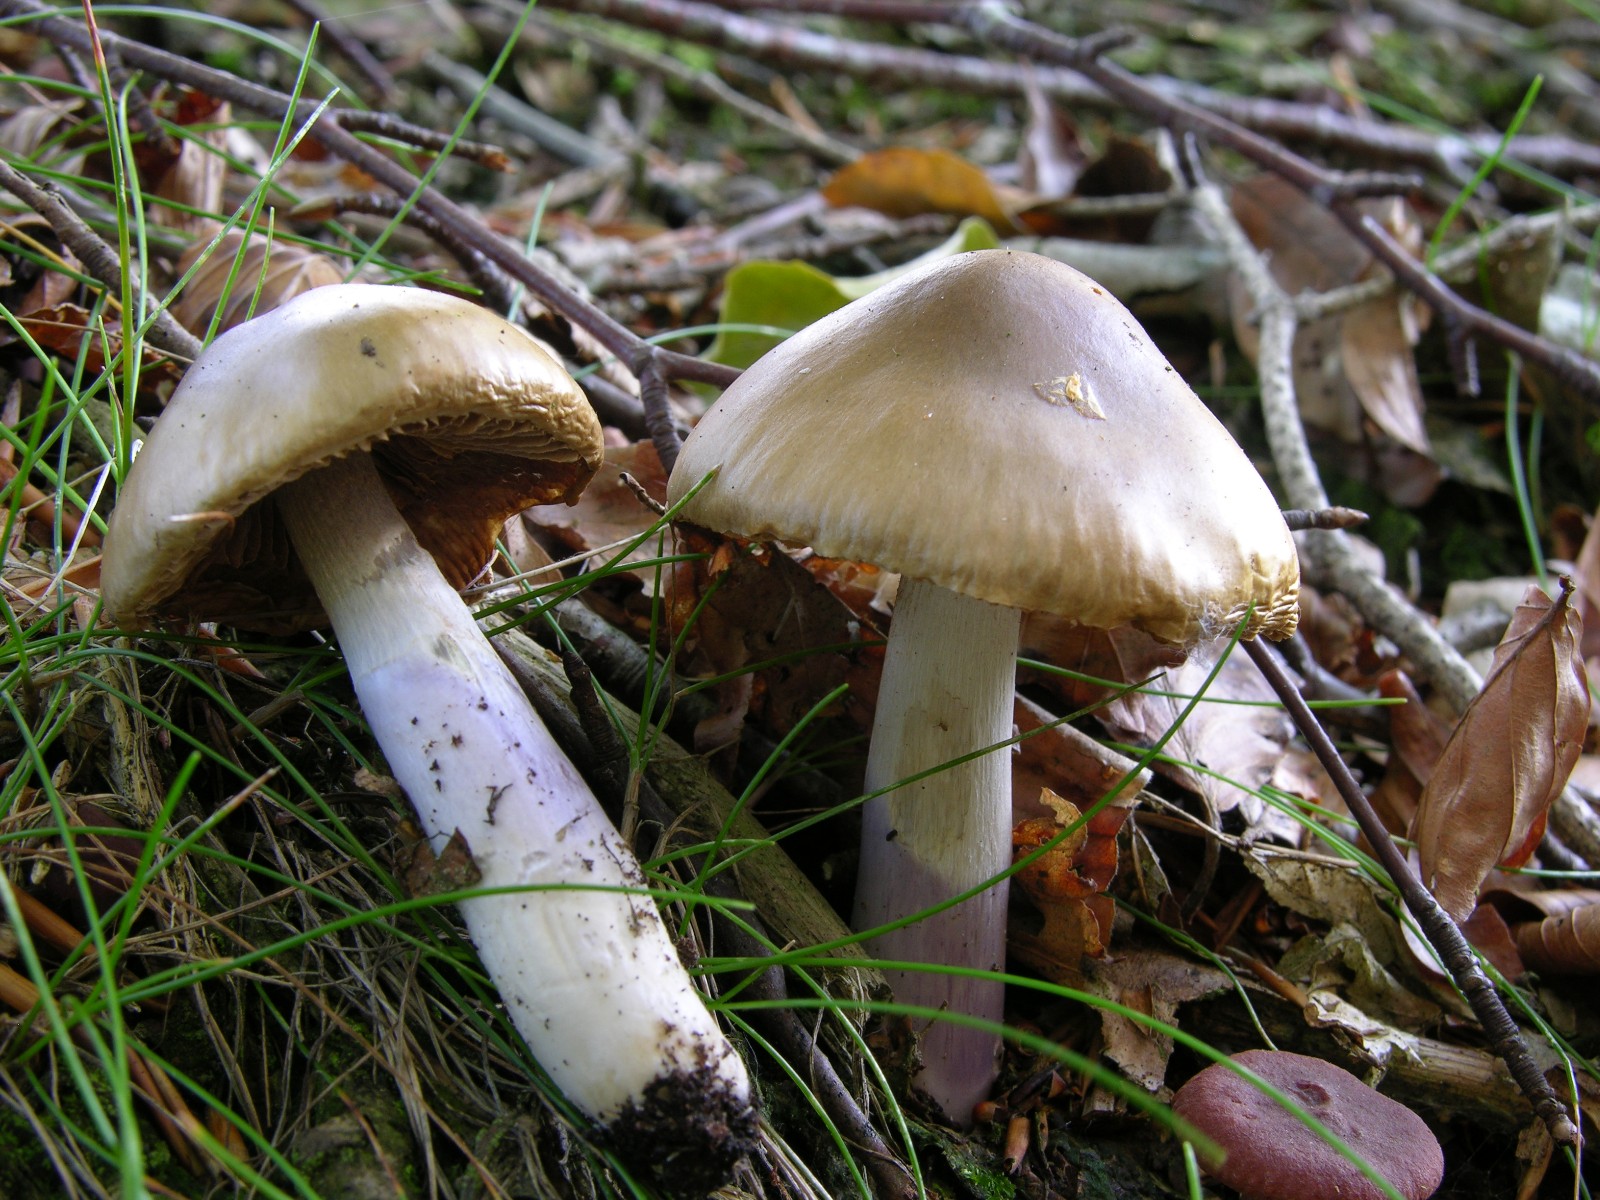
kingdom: Fungi
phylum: Basidiomycota
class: Agaricomycetes
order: Agaricales
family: Cortinariaceae
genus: Cortinarius
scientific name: Cortinarius elatior
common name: høj slørhat
